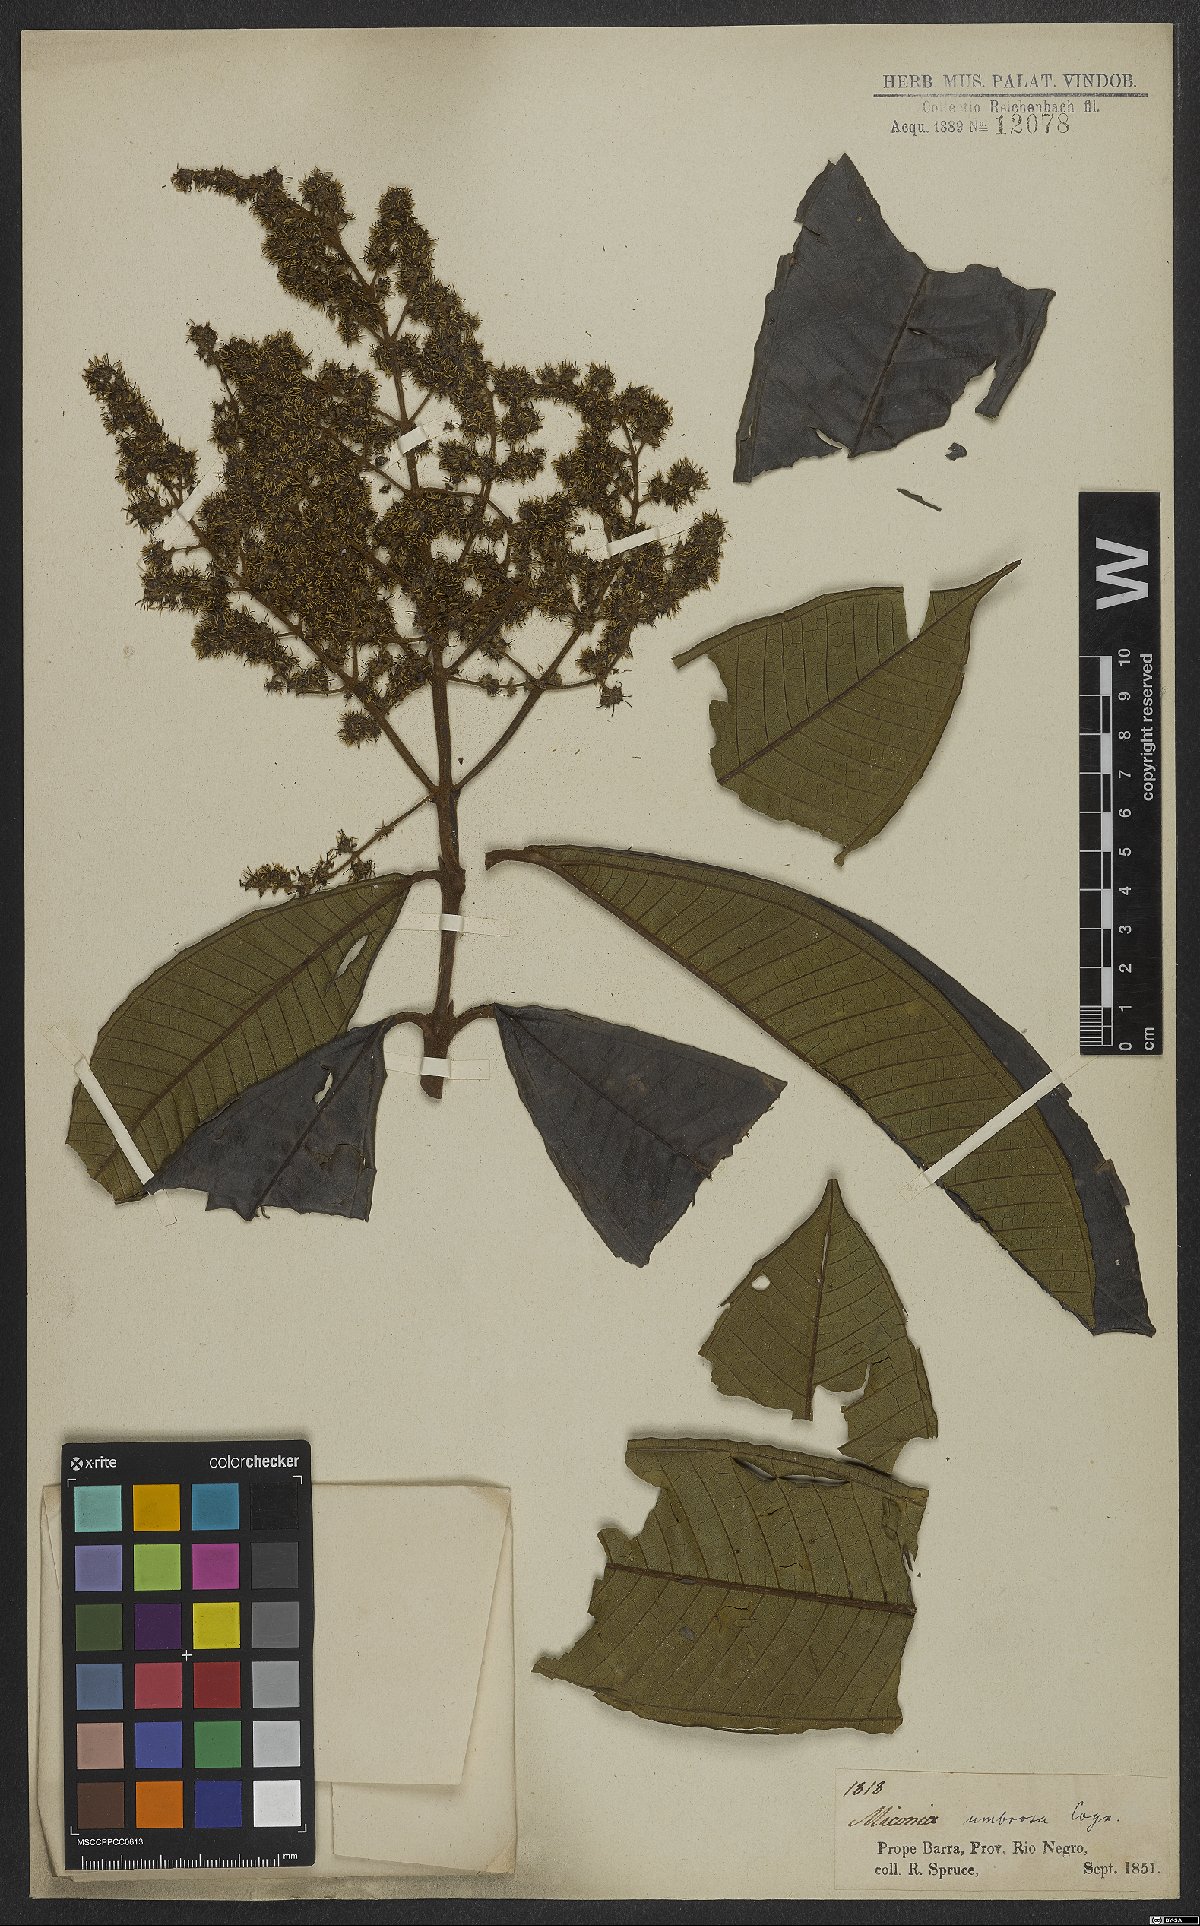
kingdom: Plantae
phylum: Tracheophyta
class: Magnoliopsida
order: Myrtales
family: Melastomataceae
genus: Miconia
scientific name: Miconia umbrosa
